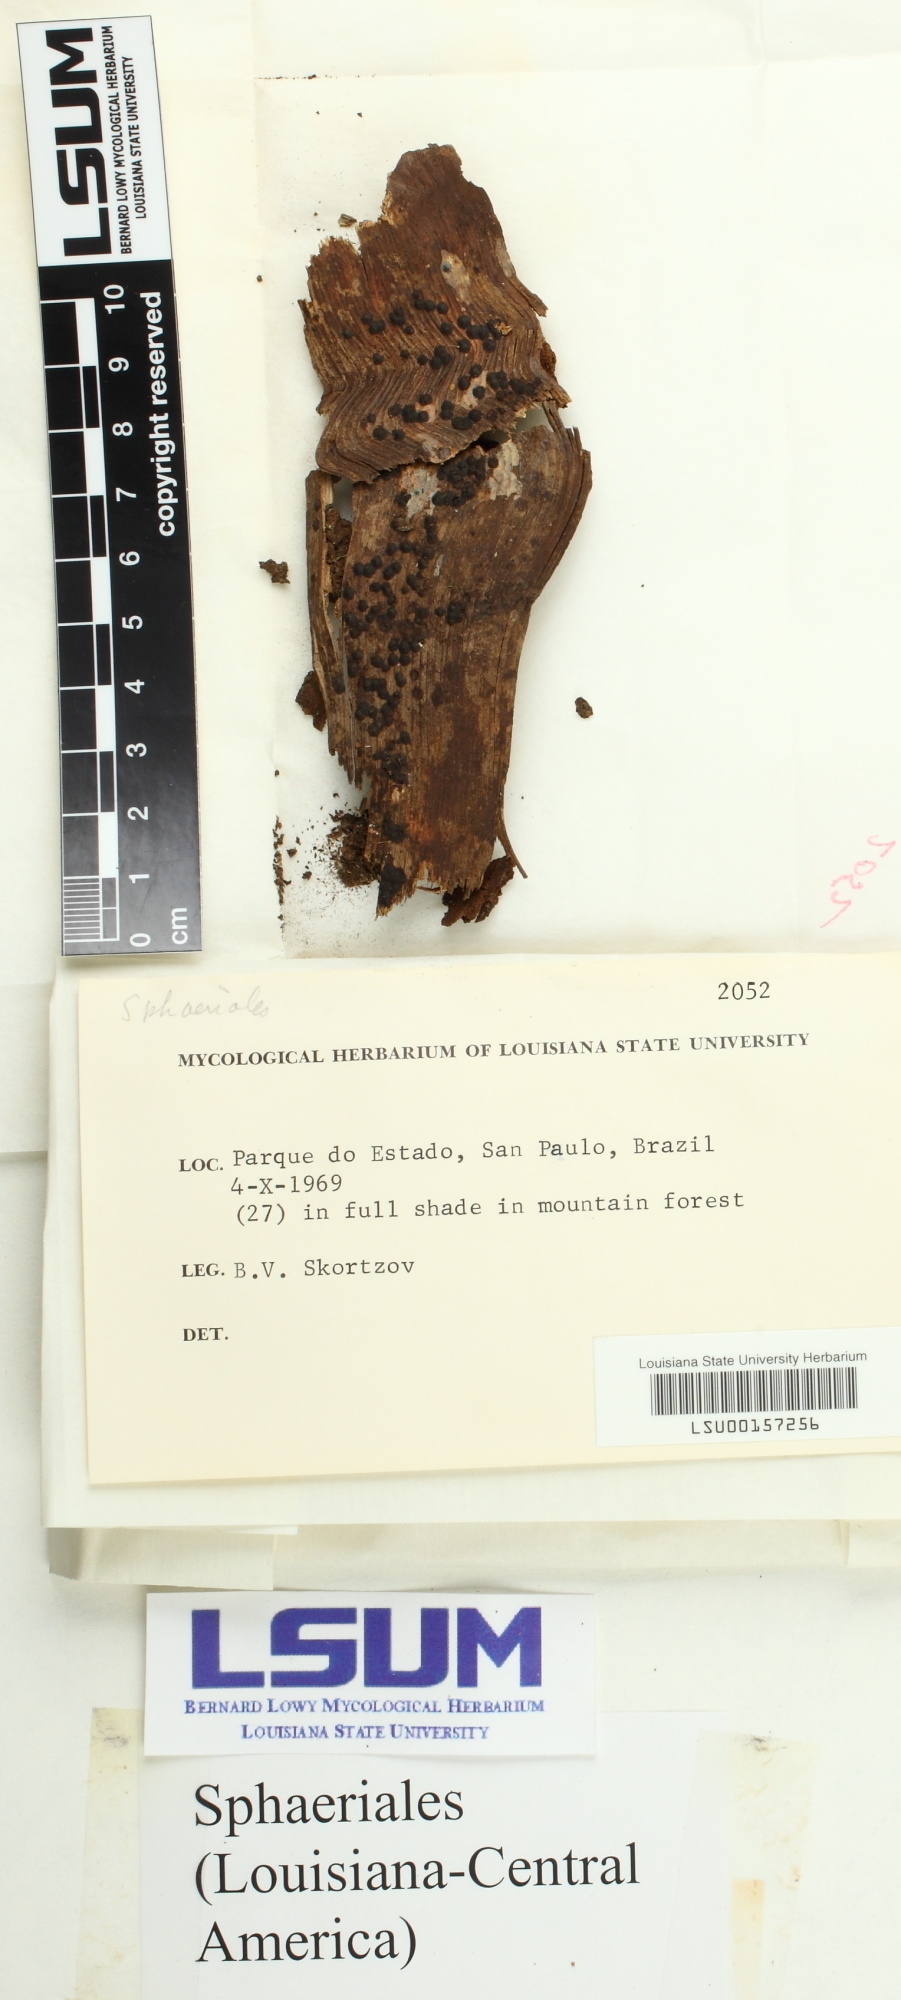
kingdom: Fungi
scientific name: Fungi
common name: Fungi
